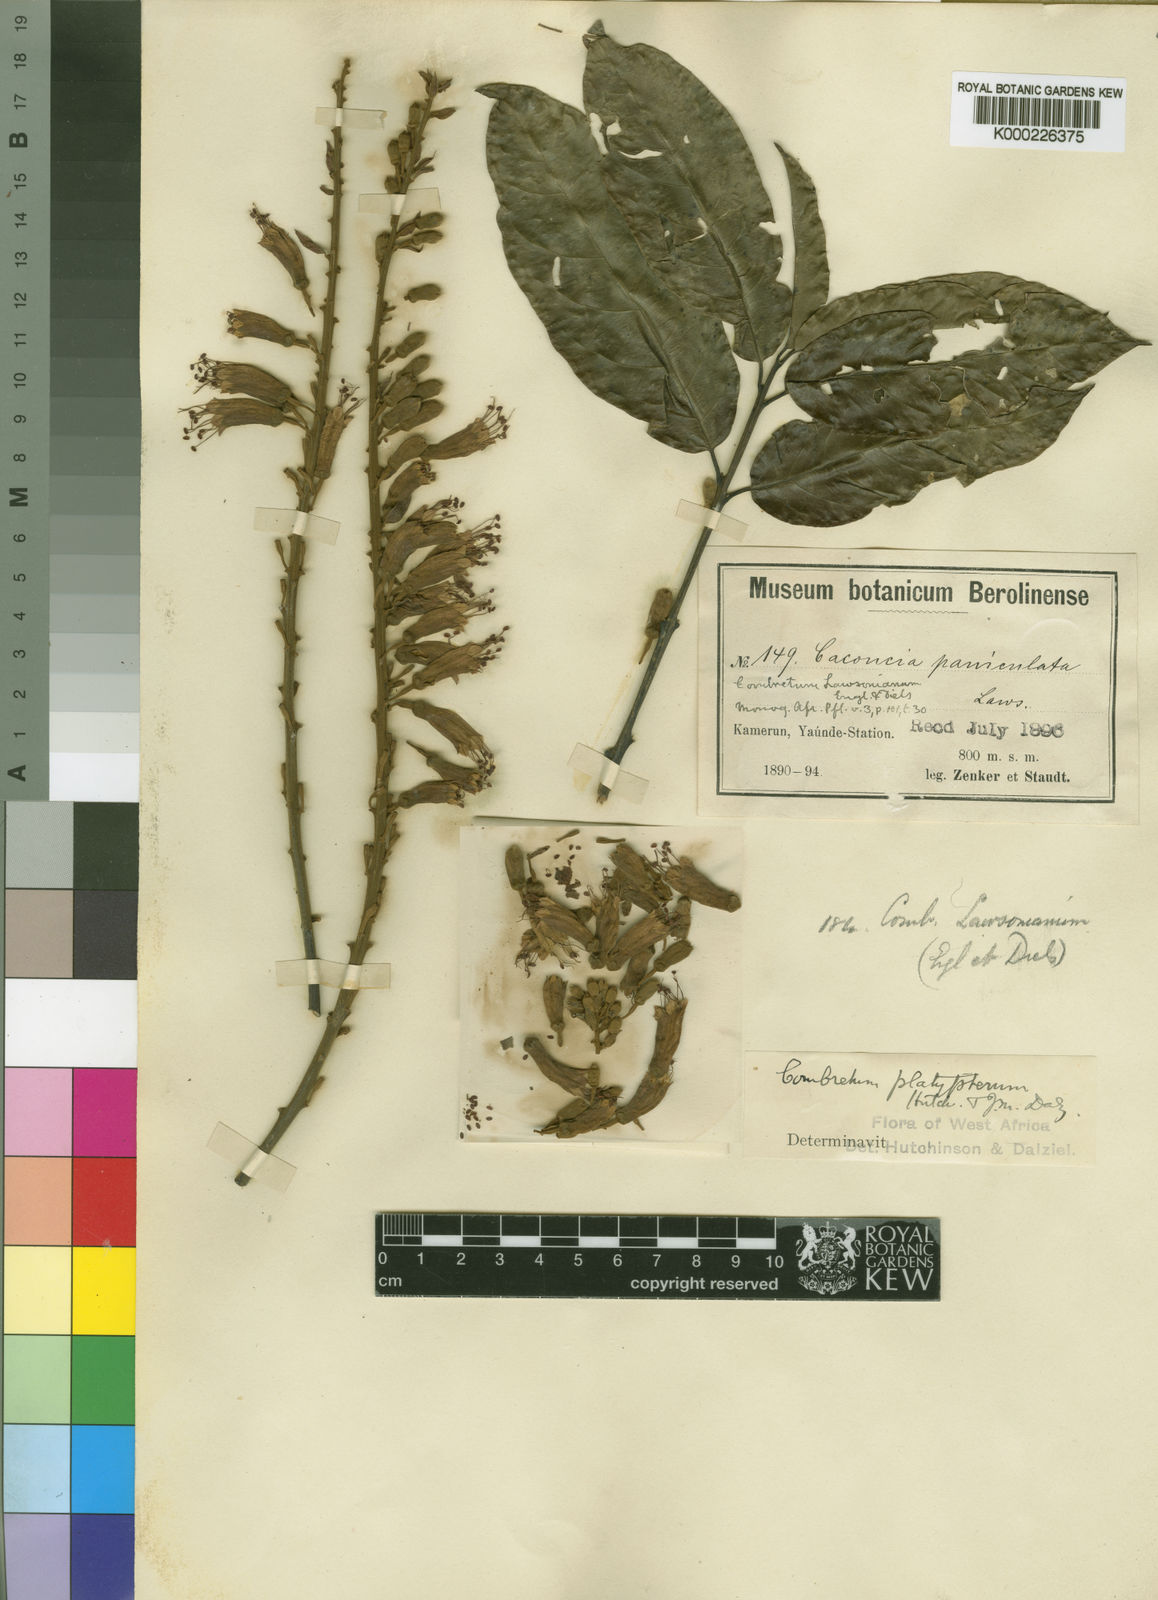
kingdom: Plantae
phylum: Tracheophyta
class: Magnoliopsida
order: Myrtales
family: Combretaceae
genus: Combretum
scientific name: Combretum platypterum
